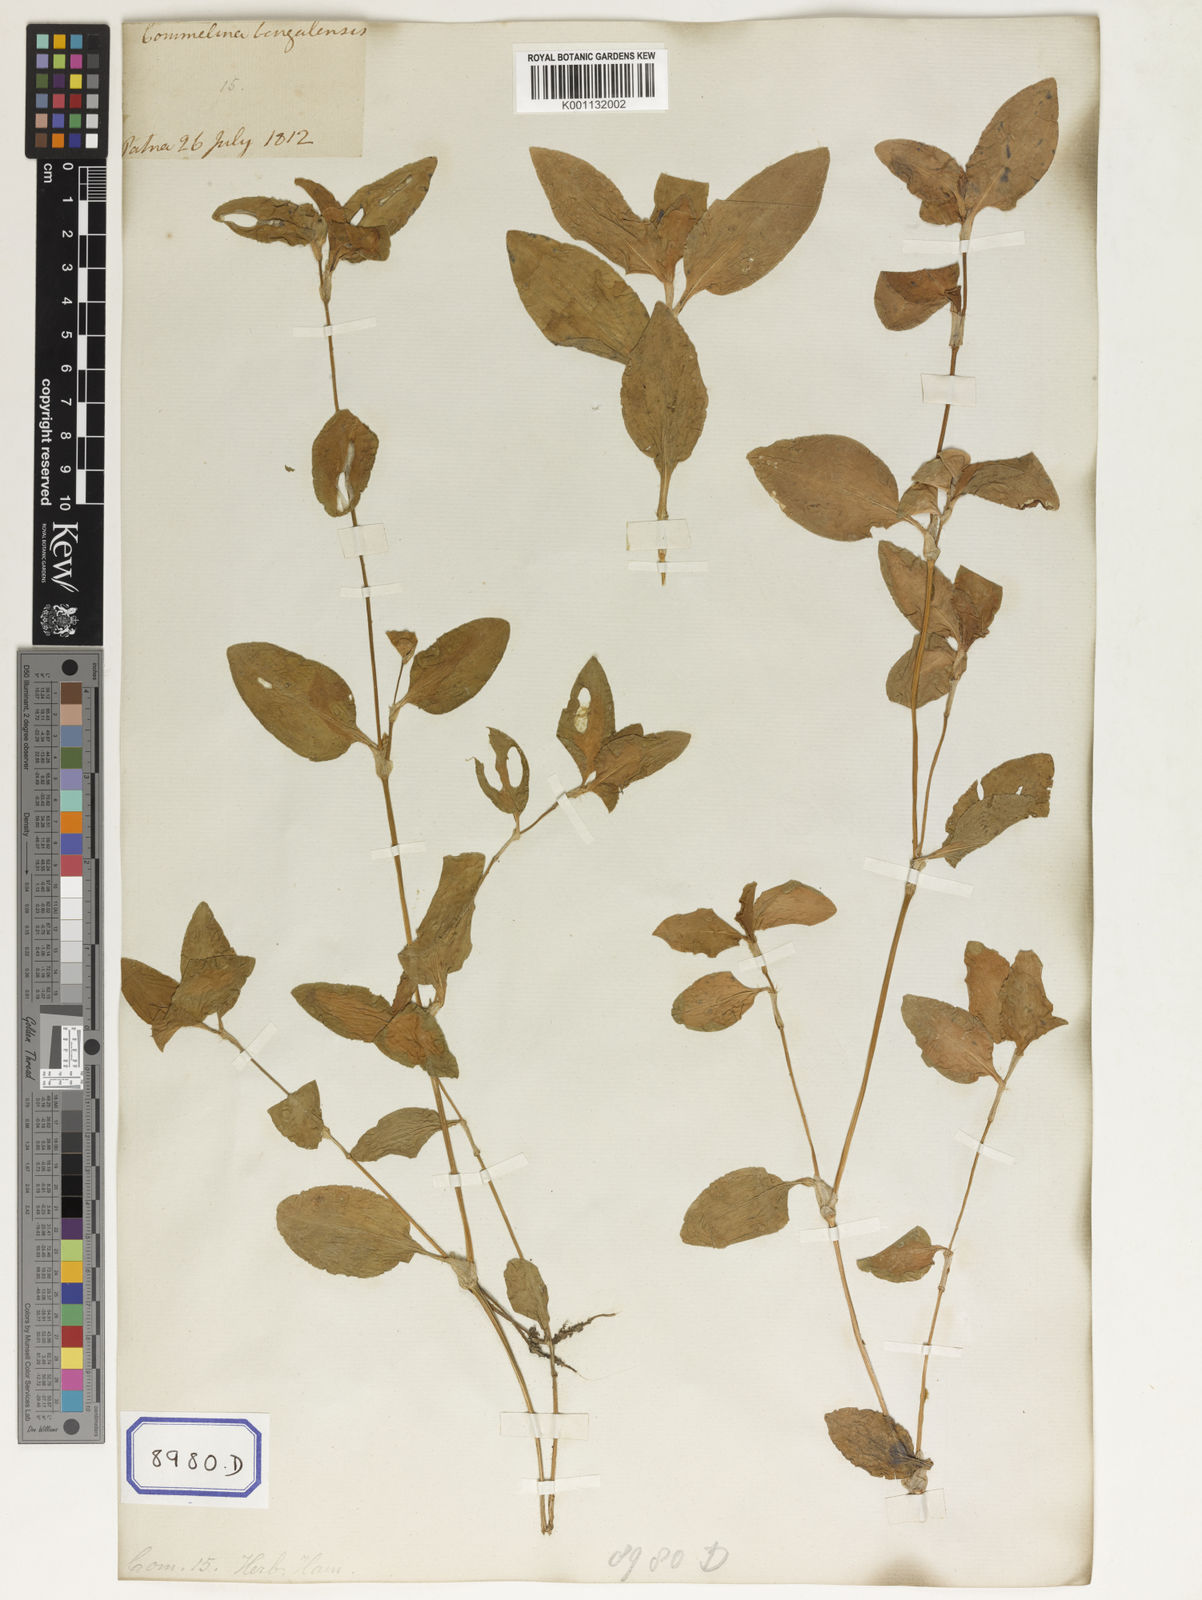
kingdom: Plantae
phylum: Tracheophyta
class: Liliopsida
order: Commelinales
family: Commelinaceae
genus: Commelina
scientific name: Commelina benghalensis
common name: Jio
